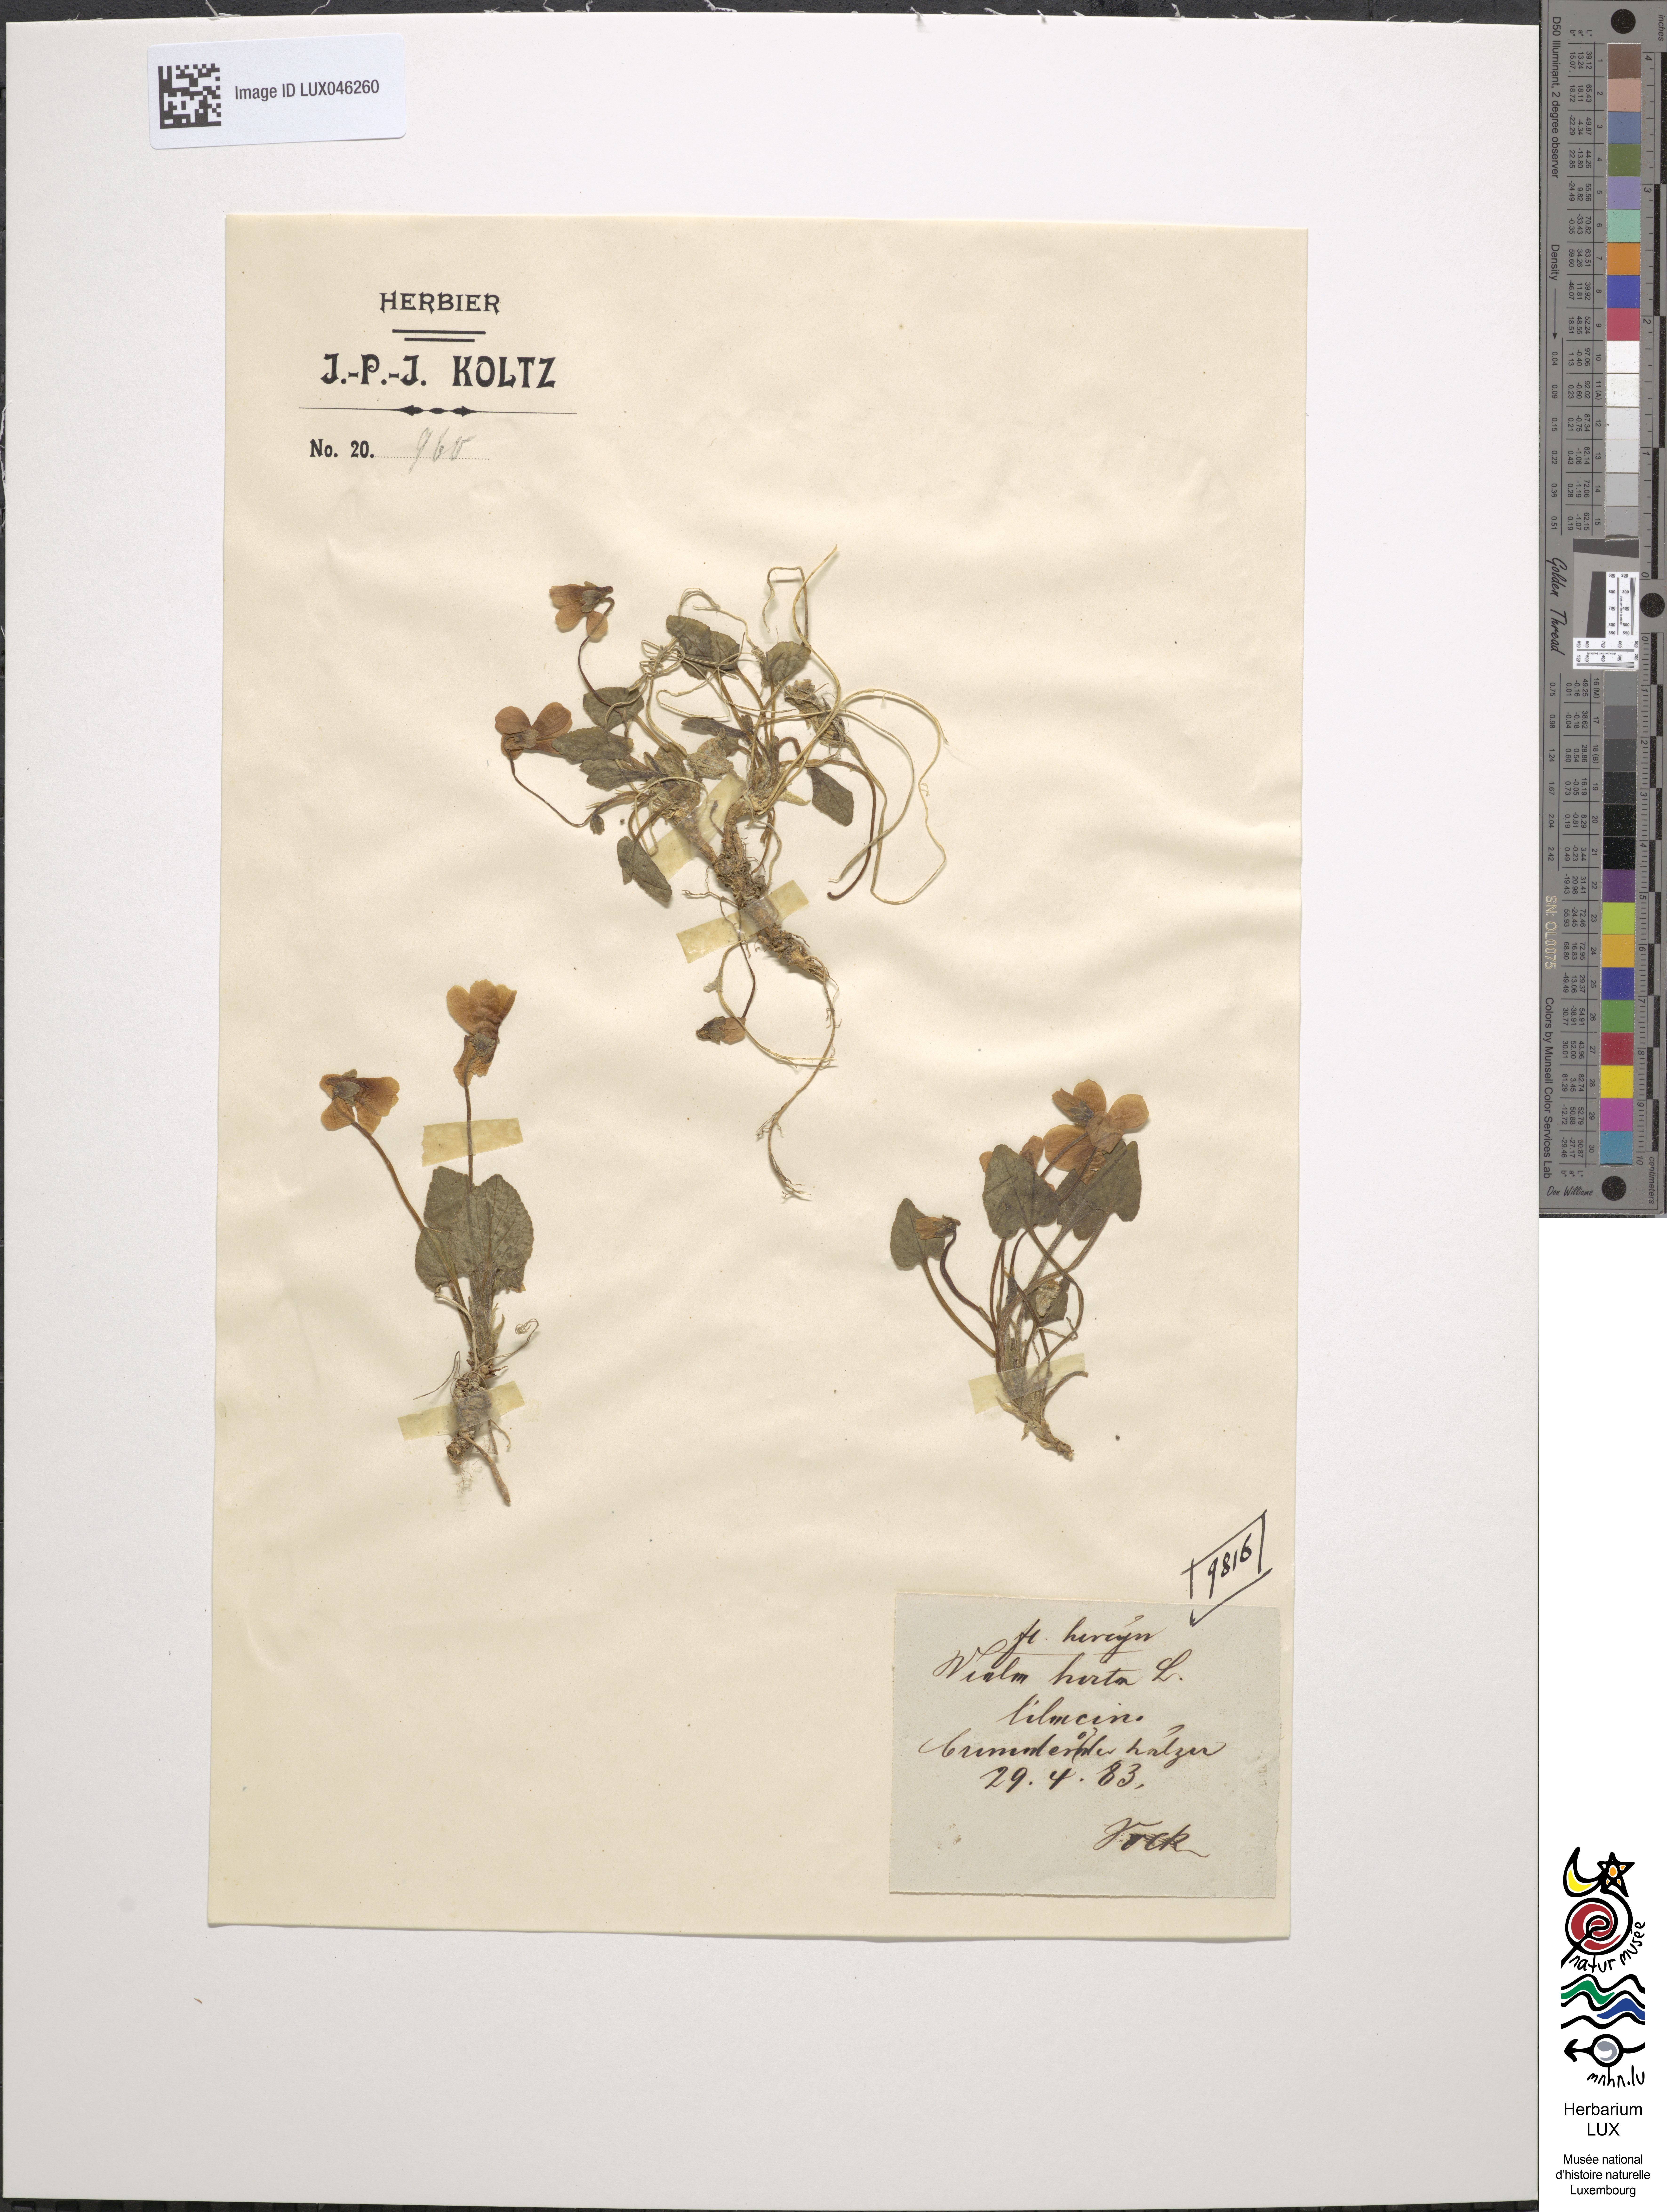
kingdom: Plantae
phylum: Tracheophyta
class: Magnoliopsida
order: Malpighiales
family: Violaceae
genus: Viola
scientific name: Viola hirta
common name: Hairy violet
